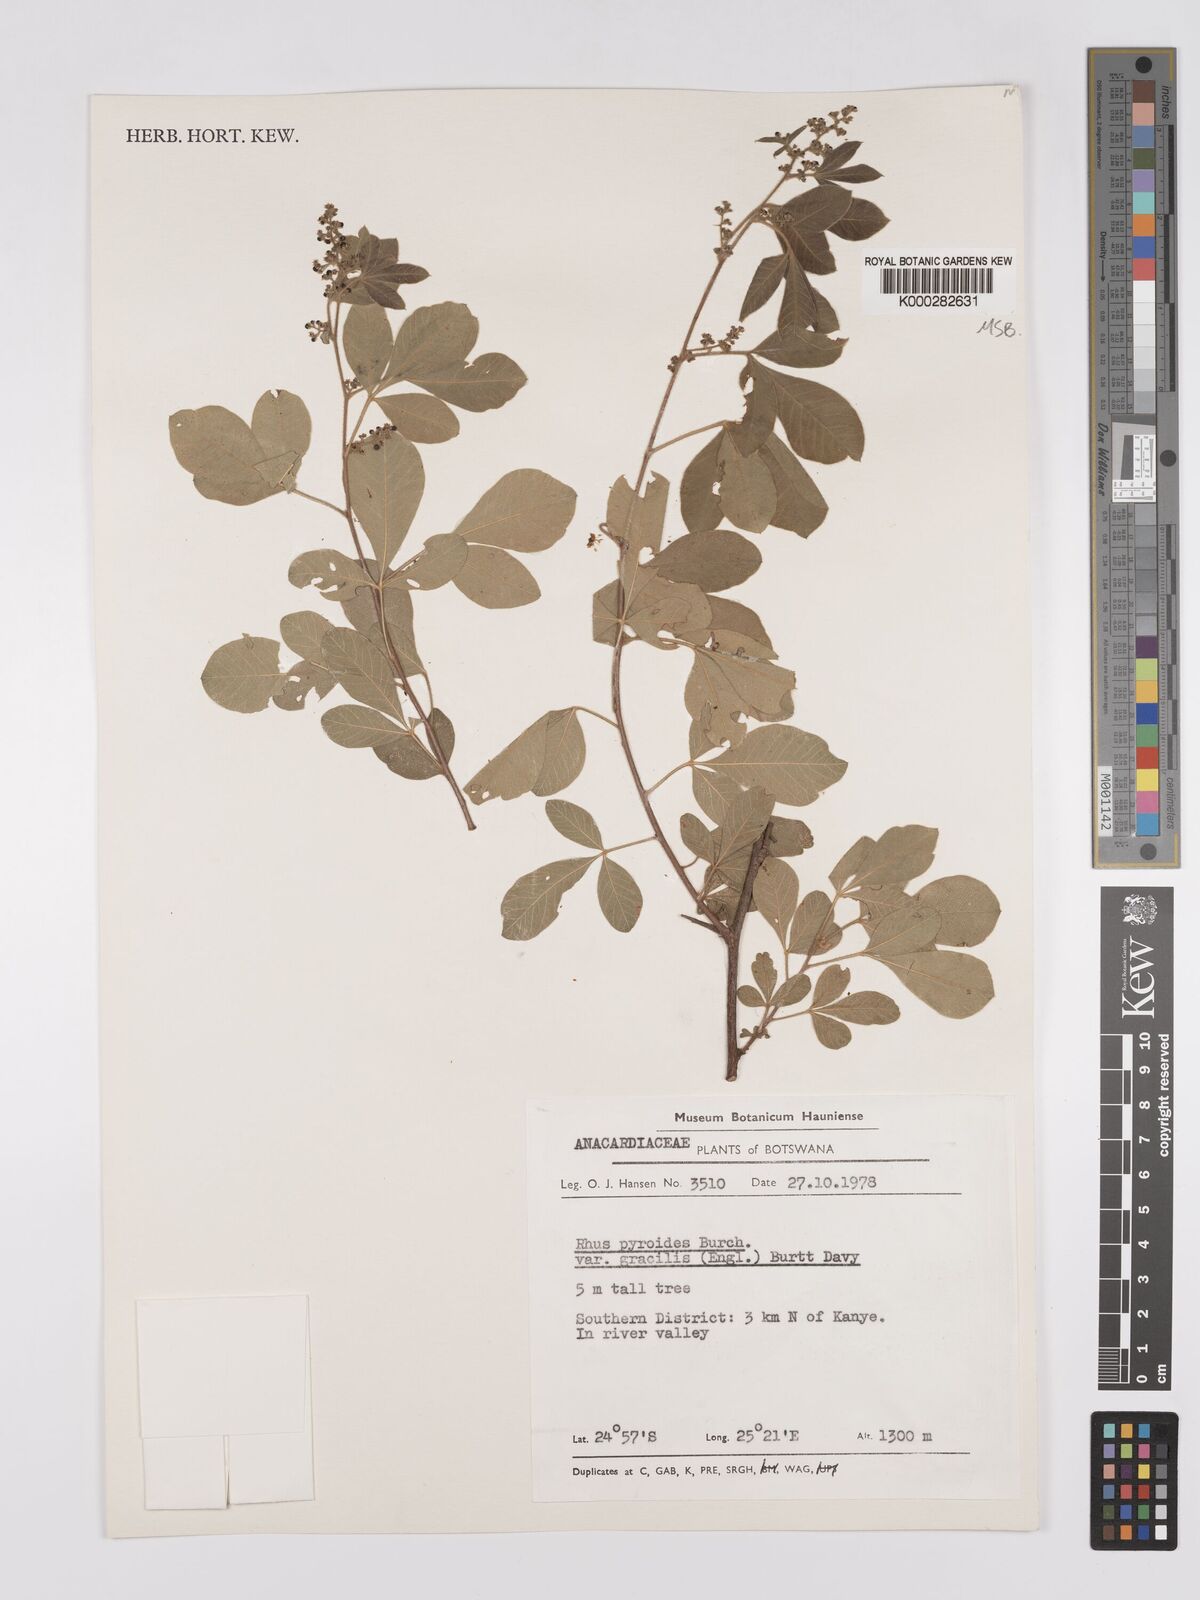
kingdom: Plantae
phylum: Tracheophyta
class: Magnoliopsida
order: Sapindales
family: Anacardiaceae
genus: Searsia
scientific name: Searsia pyroides
